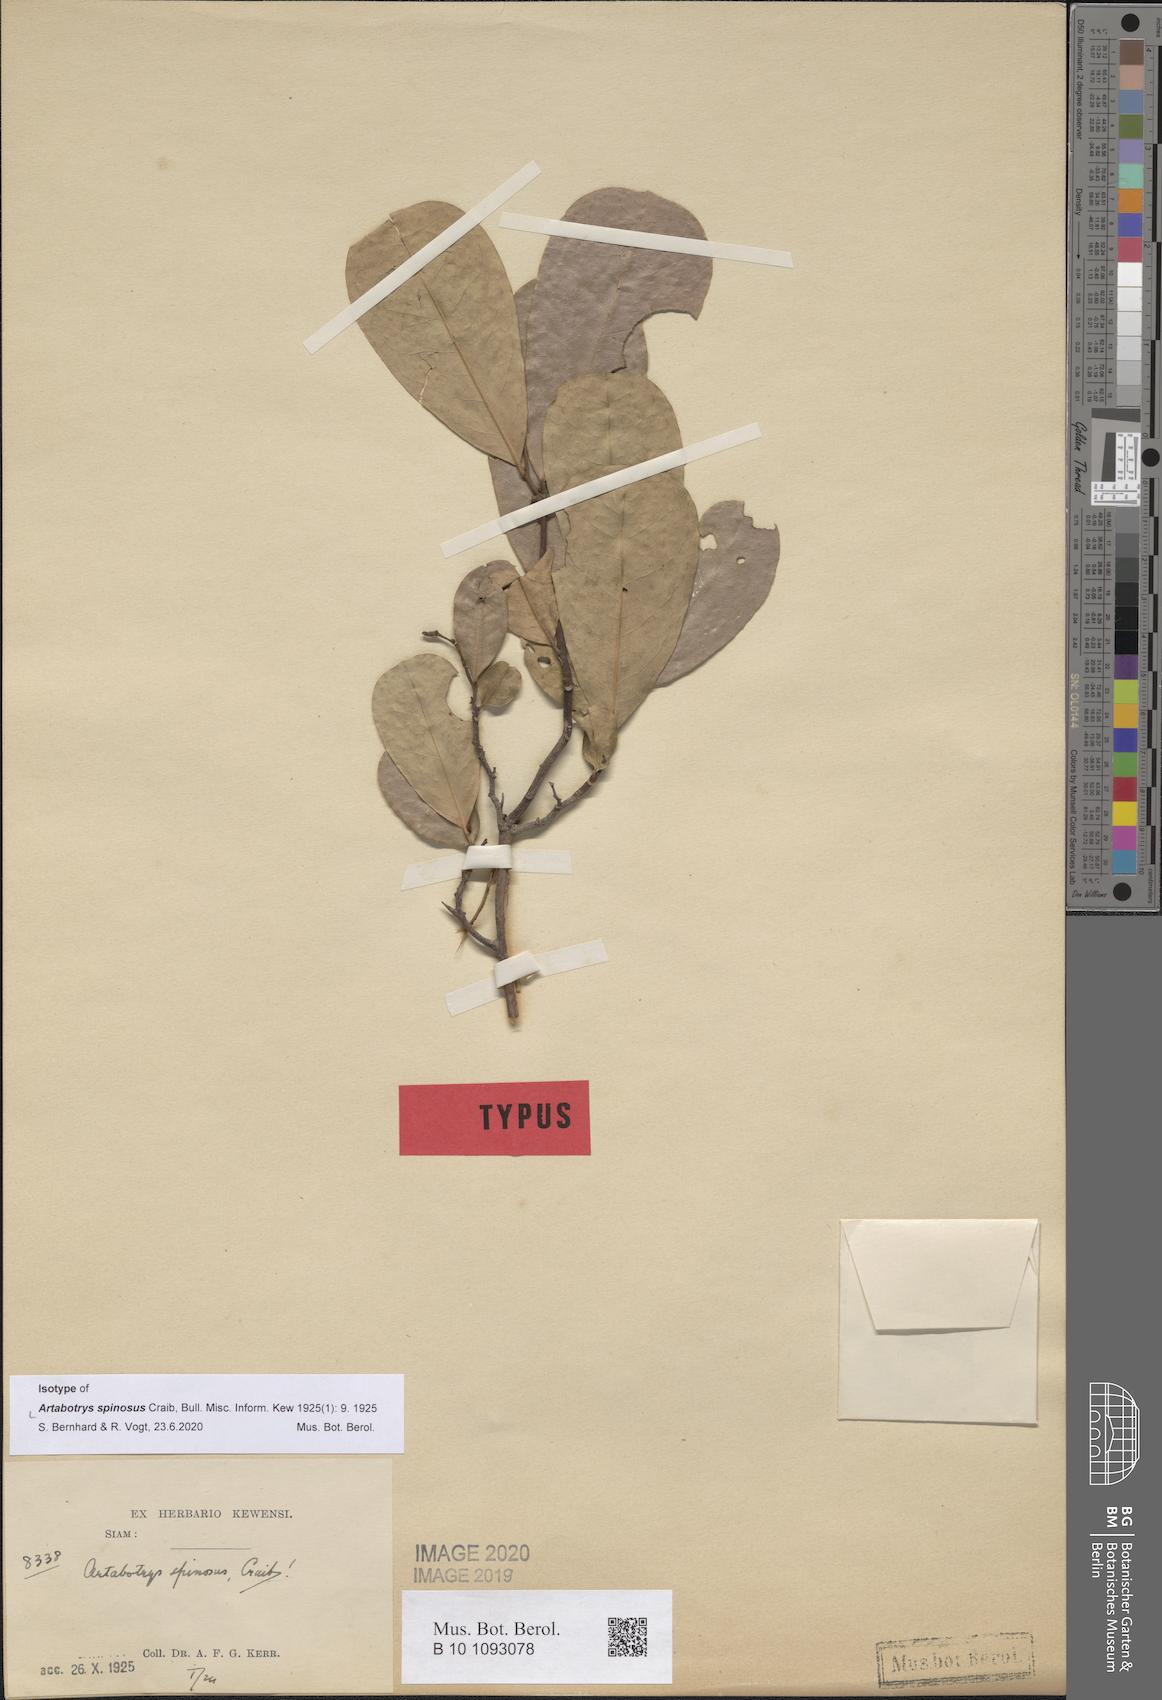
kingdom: Plantae
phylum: Tracheophyta
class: Magnoliopsida
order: Magnoliales
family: Annonaceae
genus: Artabotrys
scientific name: Artabotrys spinosus
